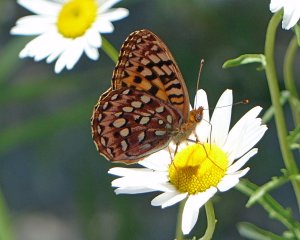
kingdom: Animalia
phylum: Arthropoda
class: Insecta
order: Lepidoptera
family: Nymphalidae
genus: Speyeria
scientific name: Speyeria hydaspe
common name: Hydaspe Fritillary
